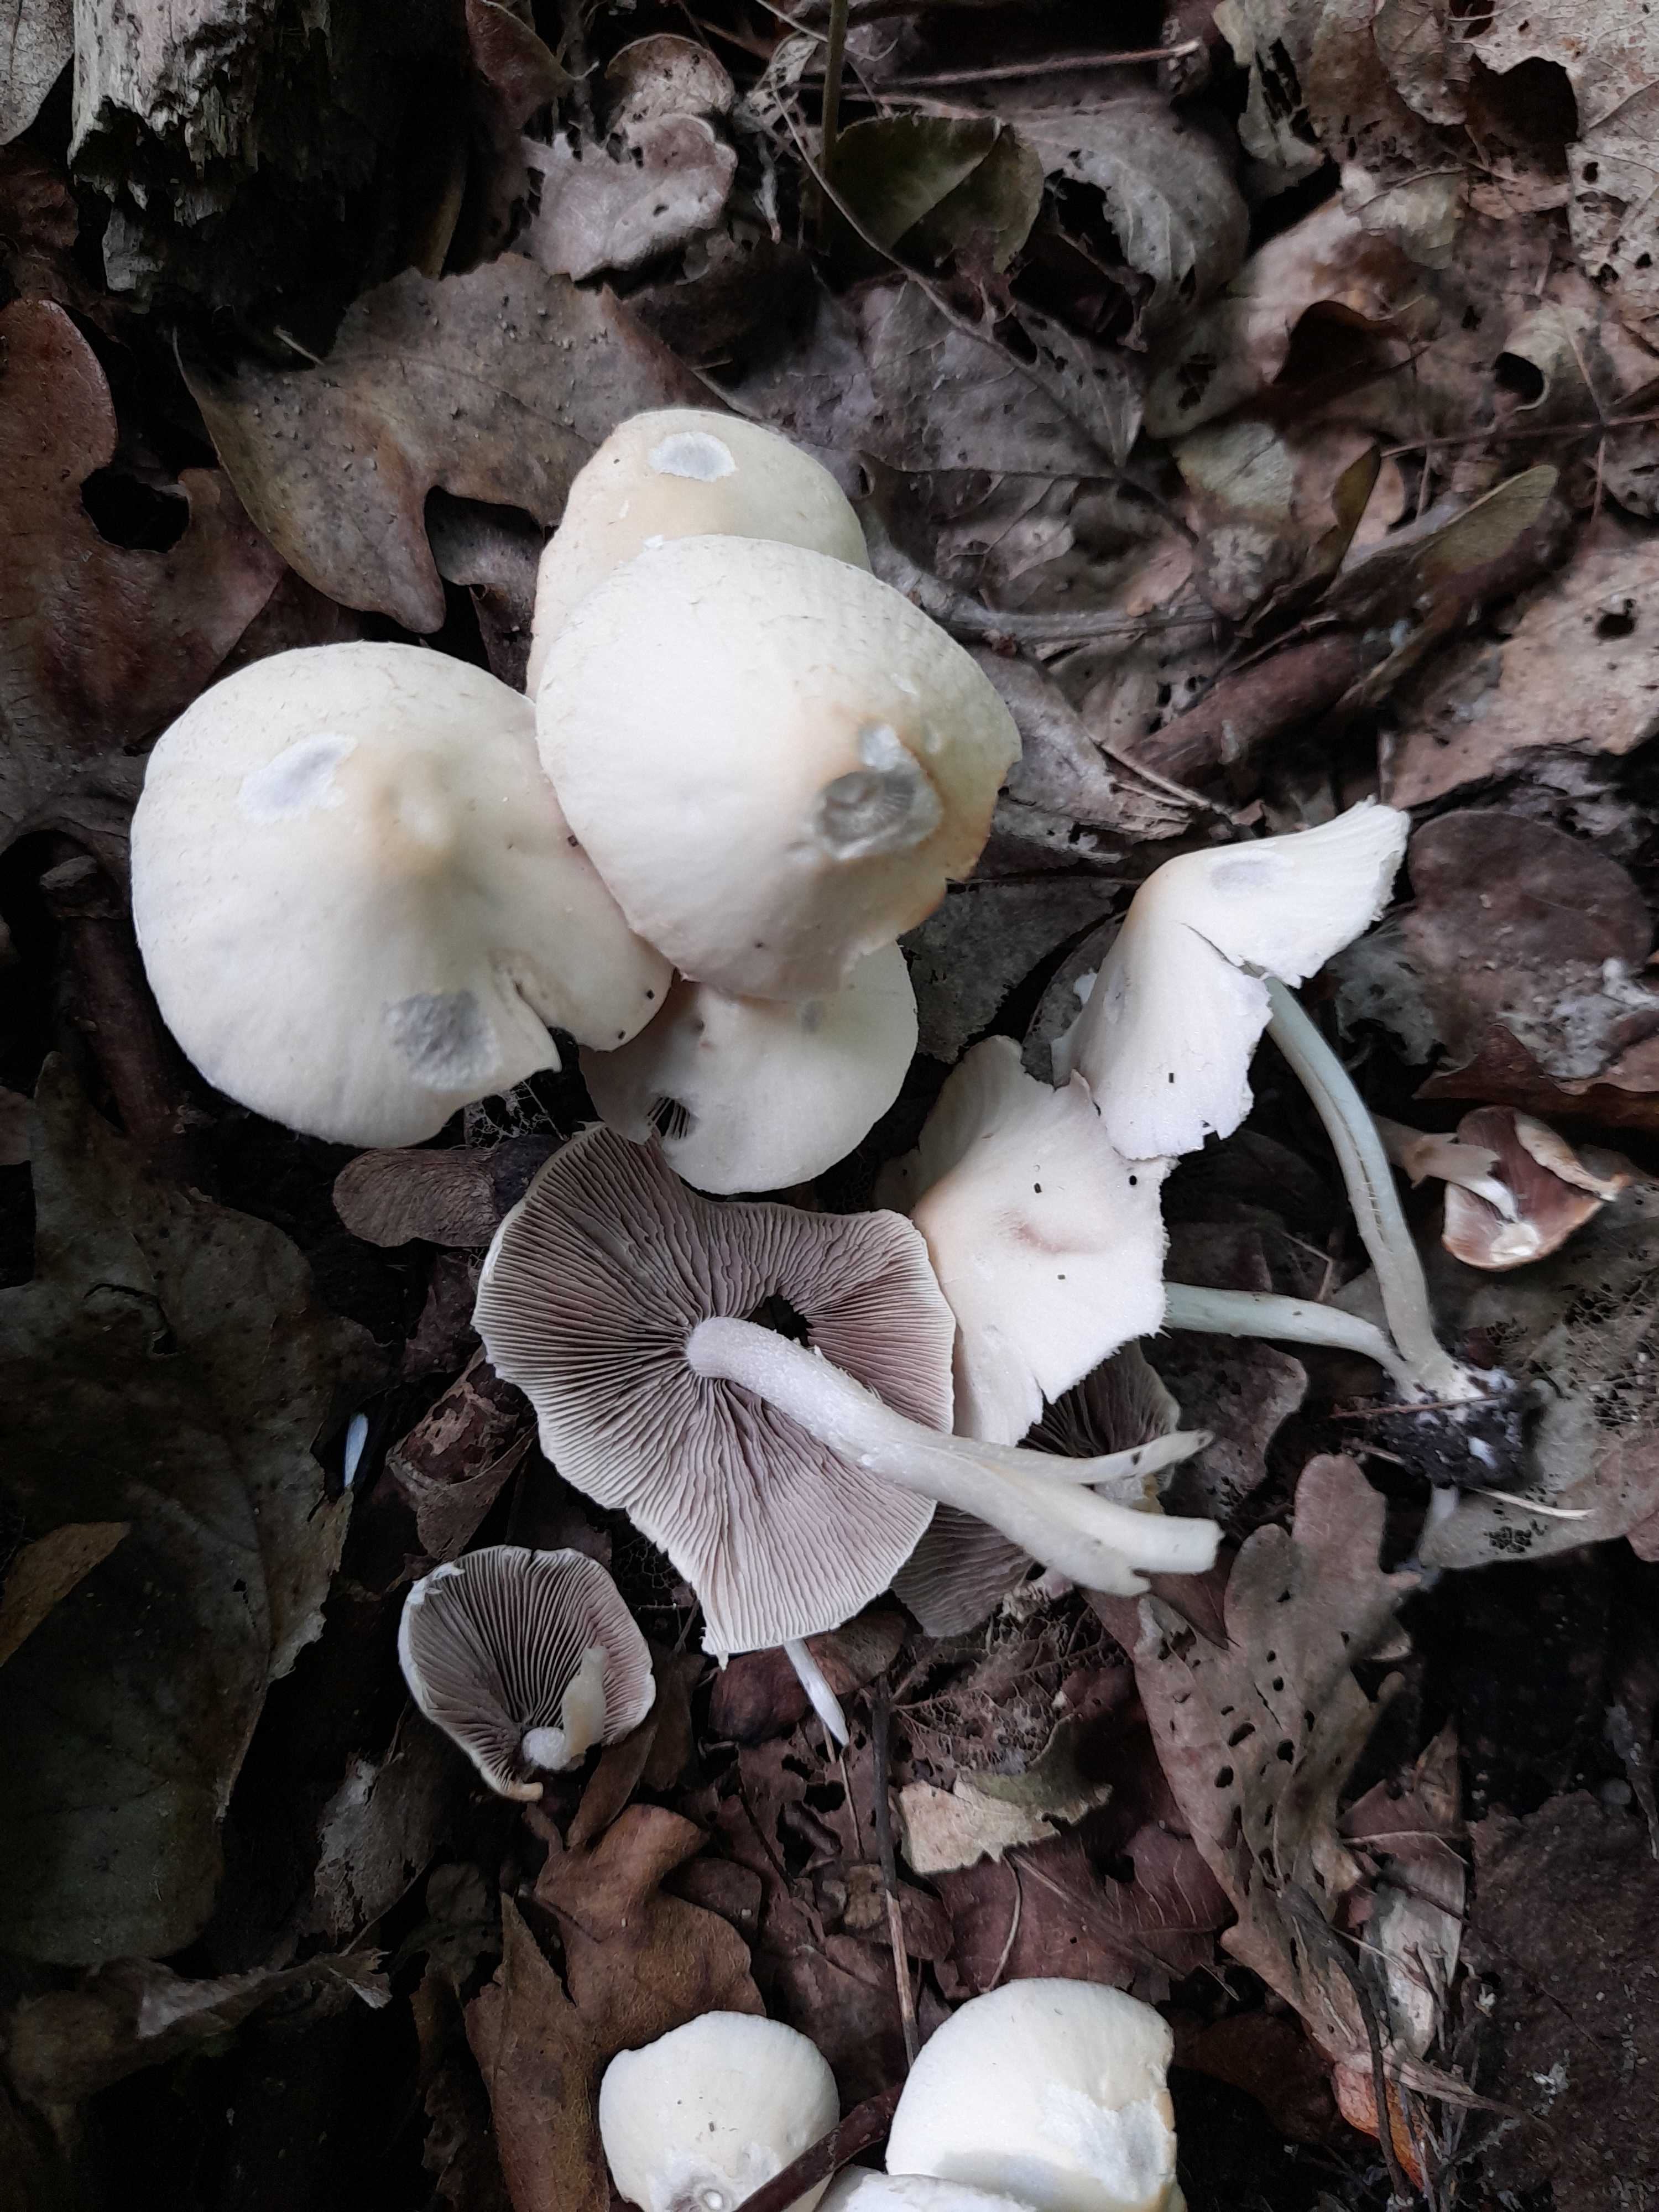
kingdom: Fungi
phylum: Basidiomycota
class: Agaricomycetes
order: Agaricales
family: Psathyrellaceae
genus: Candolleomyces
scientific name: Candolleomyces candolleanus
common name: Candolles mørkhat
